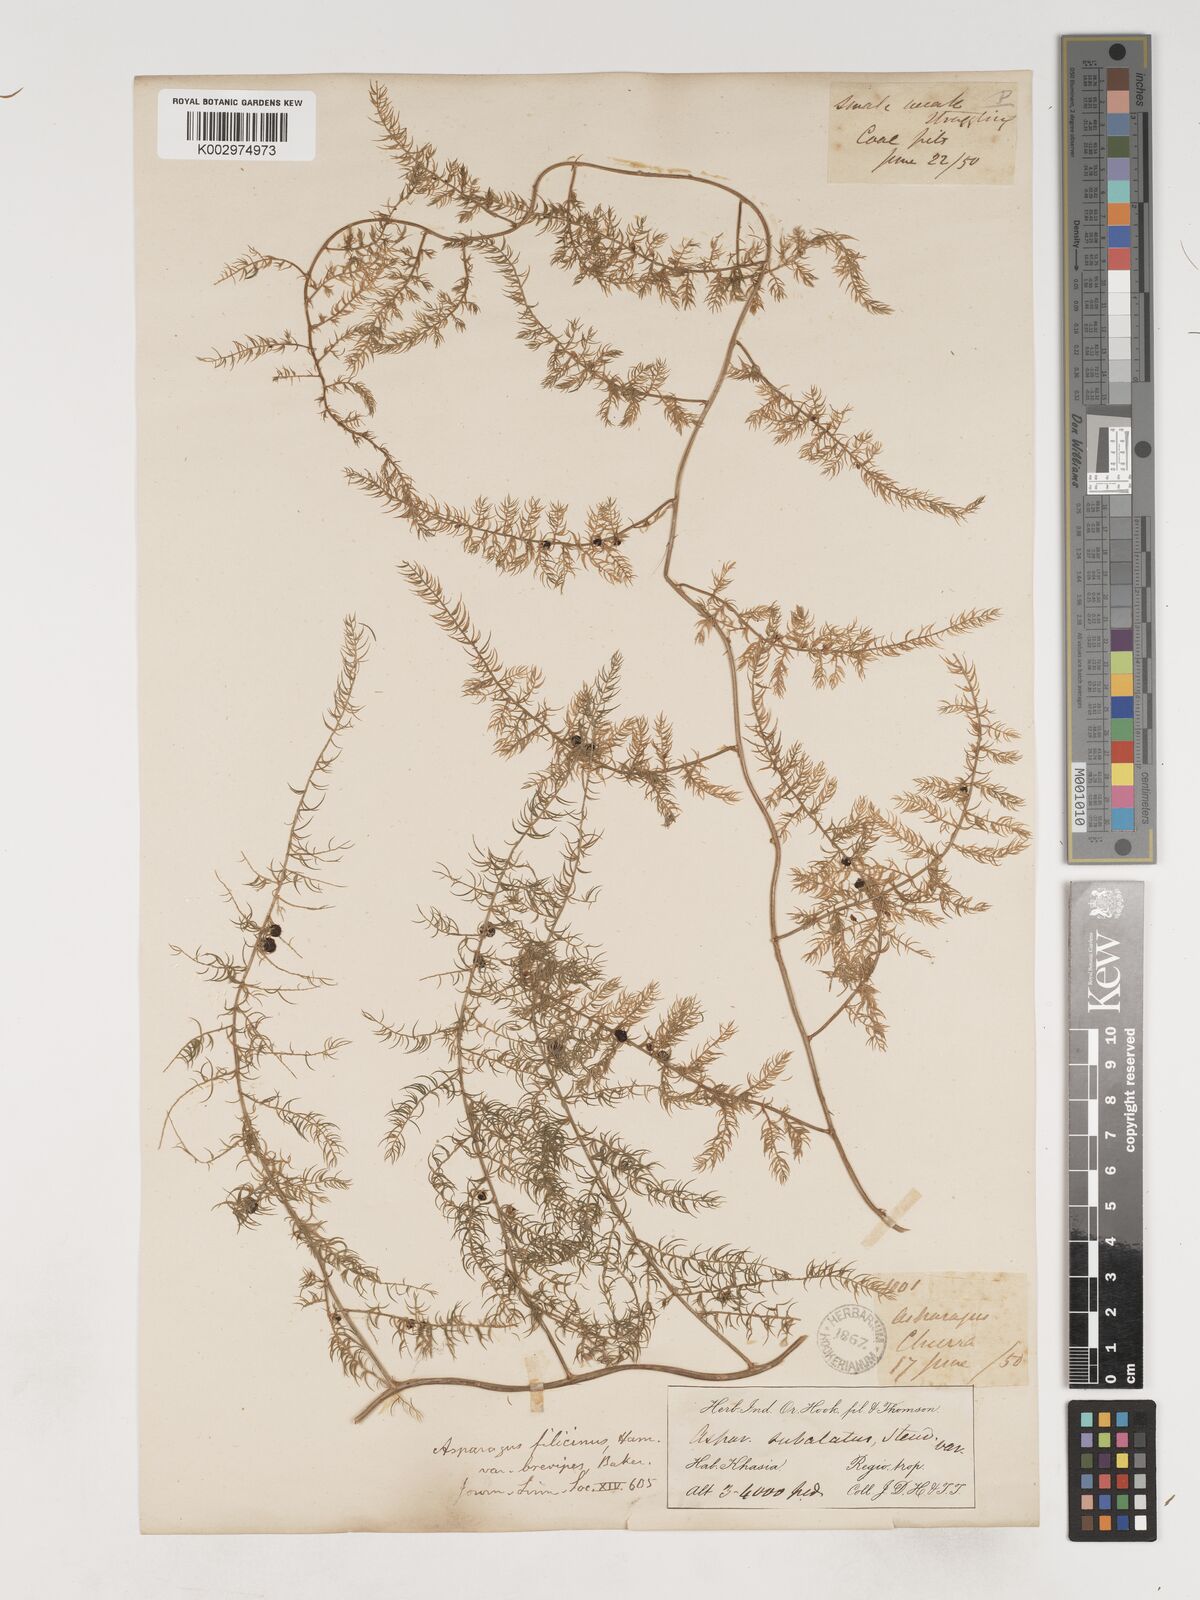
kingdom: Plantae
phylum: Tracheophyta
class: Liliopsida
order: Asparagales
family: Asparagaceae
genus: Asparagus
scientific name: Asparagus filicinus
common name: Fern asparagus
